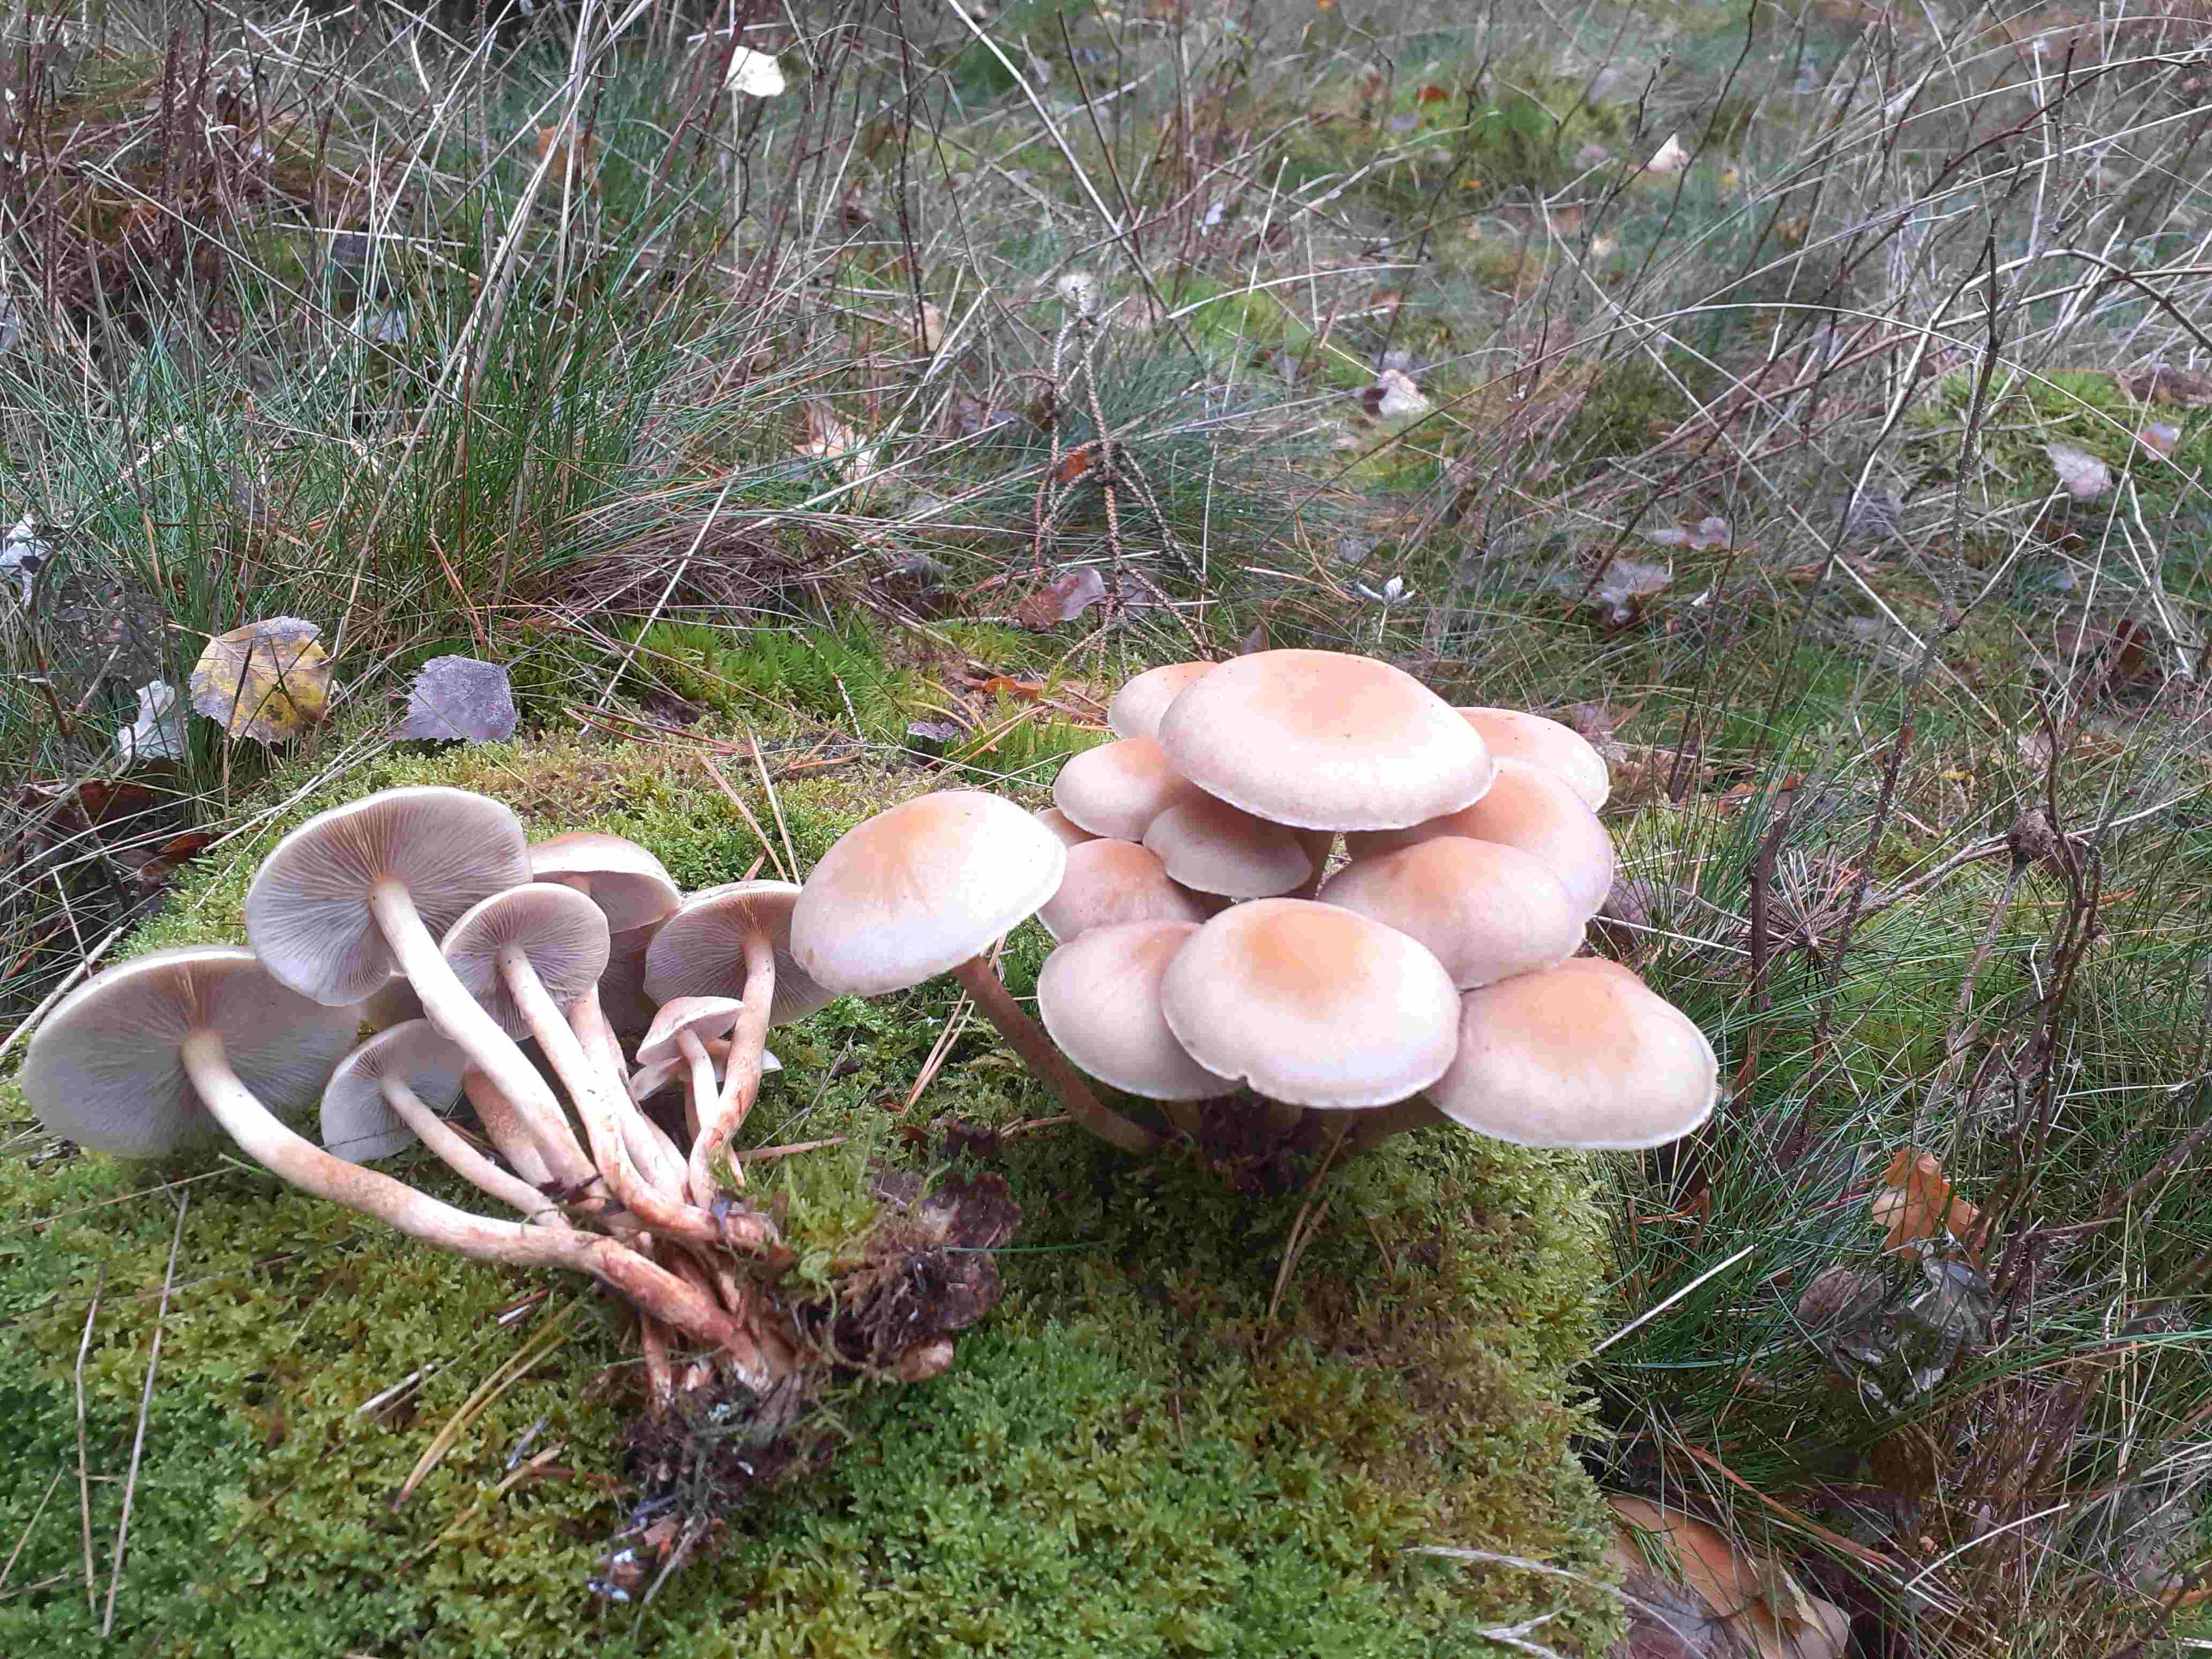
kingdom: Fungi
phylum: Basidiomycota
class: Agaricomycetes
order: Agaricales
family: Strophariaceae
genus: Hypholoma
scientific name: Hypholoma capnoides
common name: gran-svovlhat
